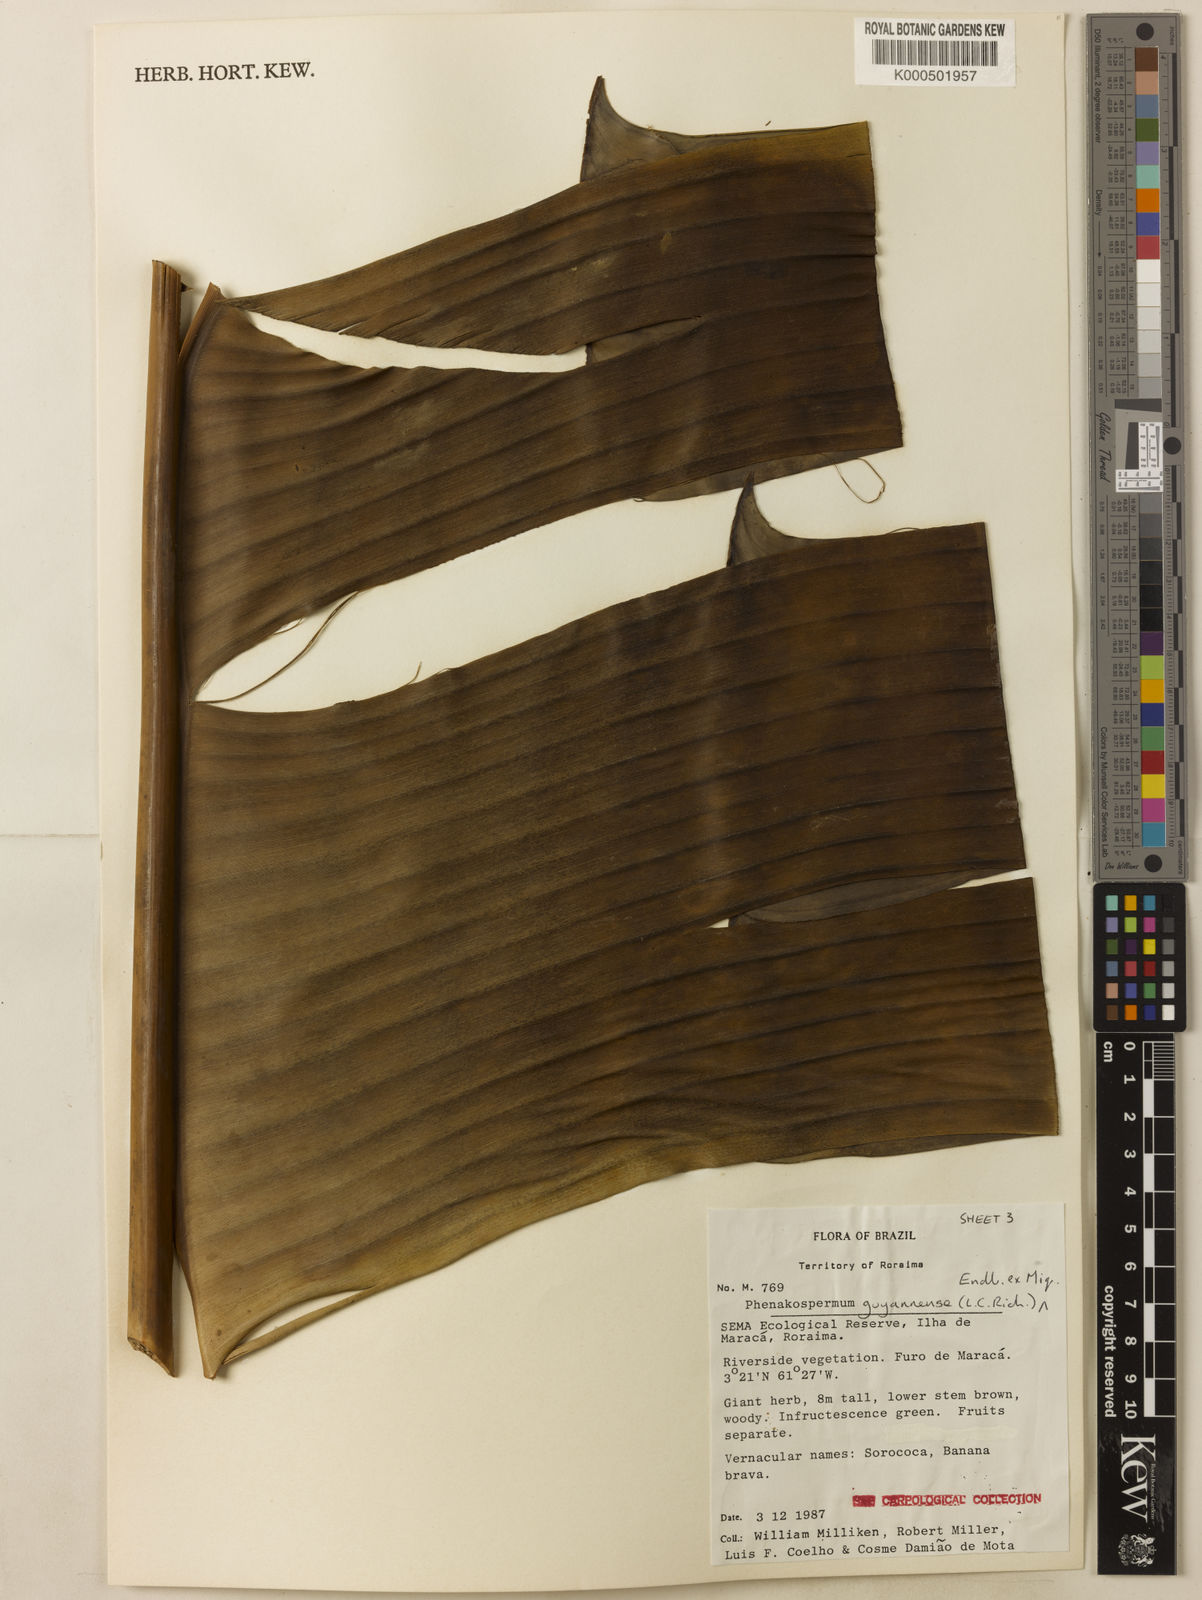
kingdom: Plantae
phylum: Tracheophyta
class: Liliopsida
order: Zingiberales
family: Strelitziaceae
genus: Phenakospermum
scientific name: Phenakospermum guyannense
